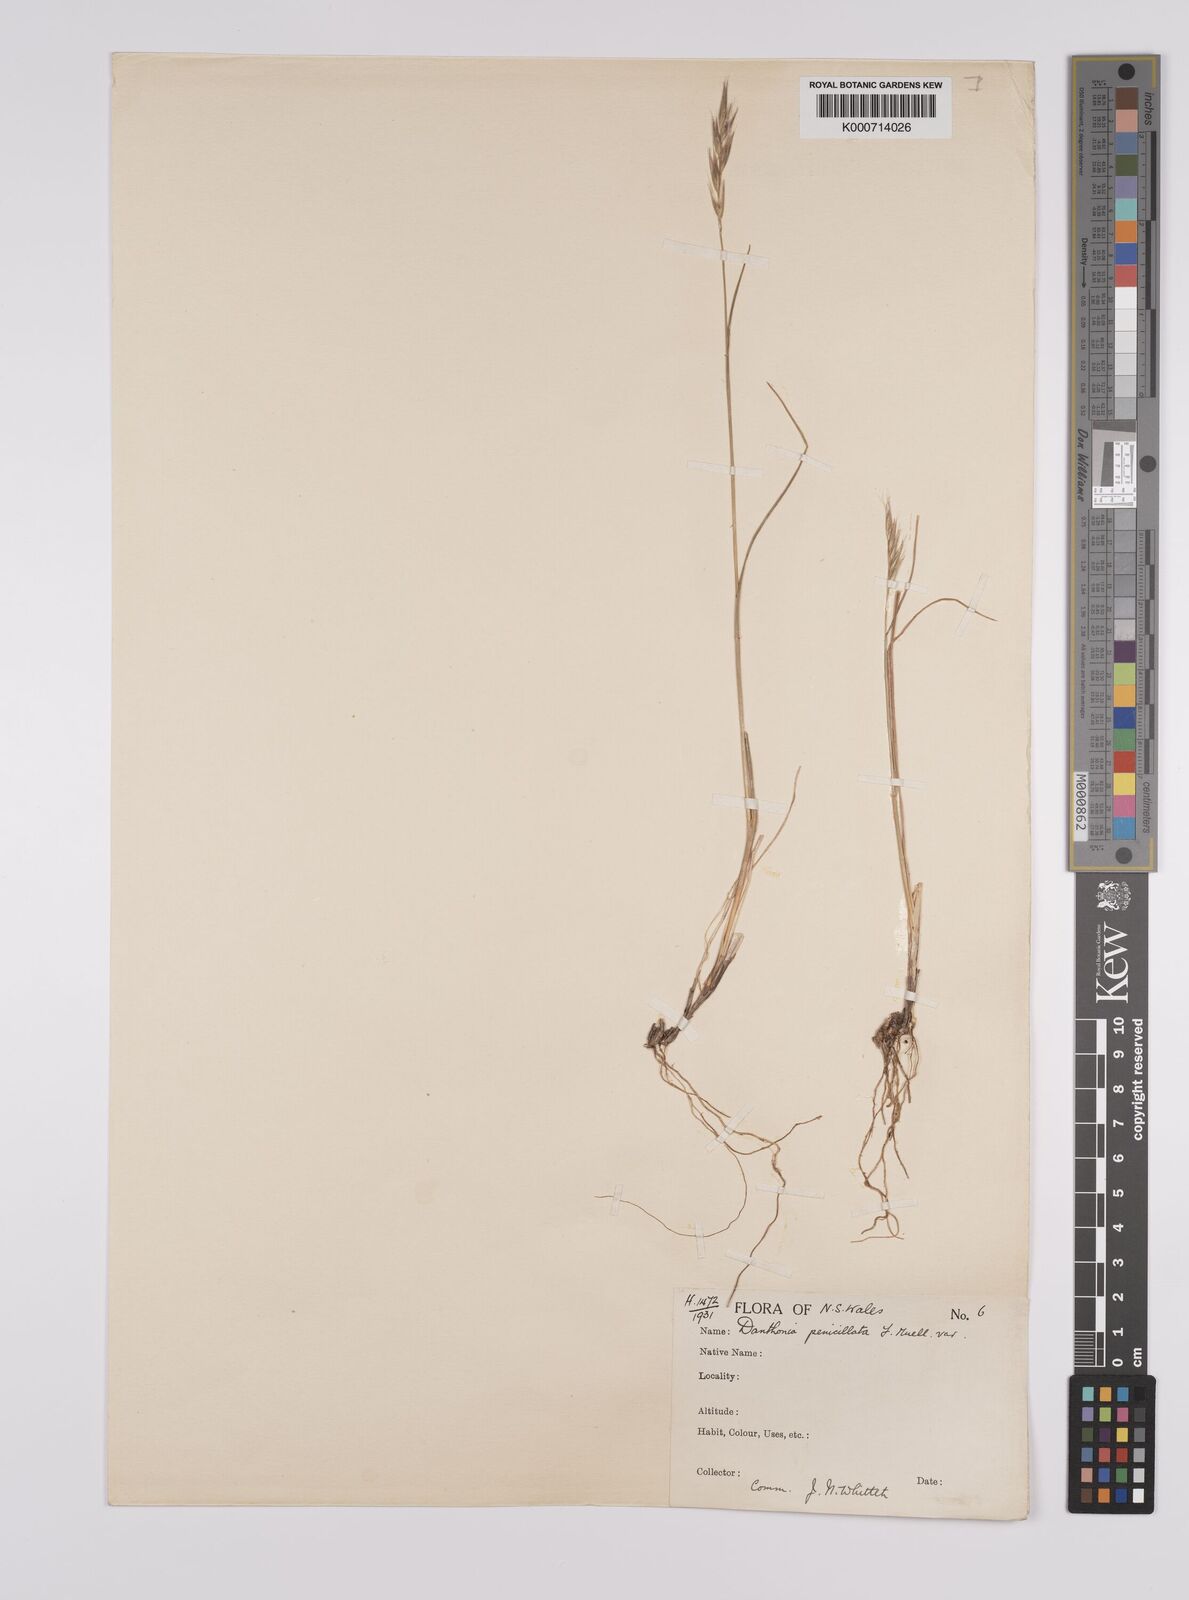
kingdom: Plantae
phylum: Tracheophyta
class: Liliopsida
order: Poales
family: Poaceae
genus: Rytidosperma
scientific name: Rytidosperma penicillatum
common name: Hairy wallaby grass
